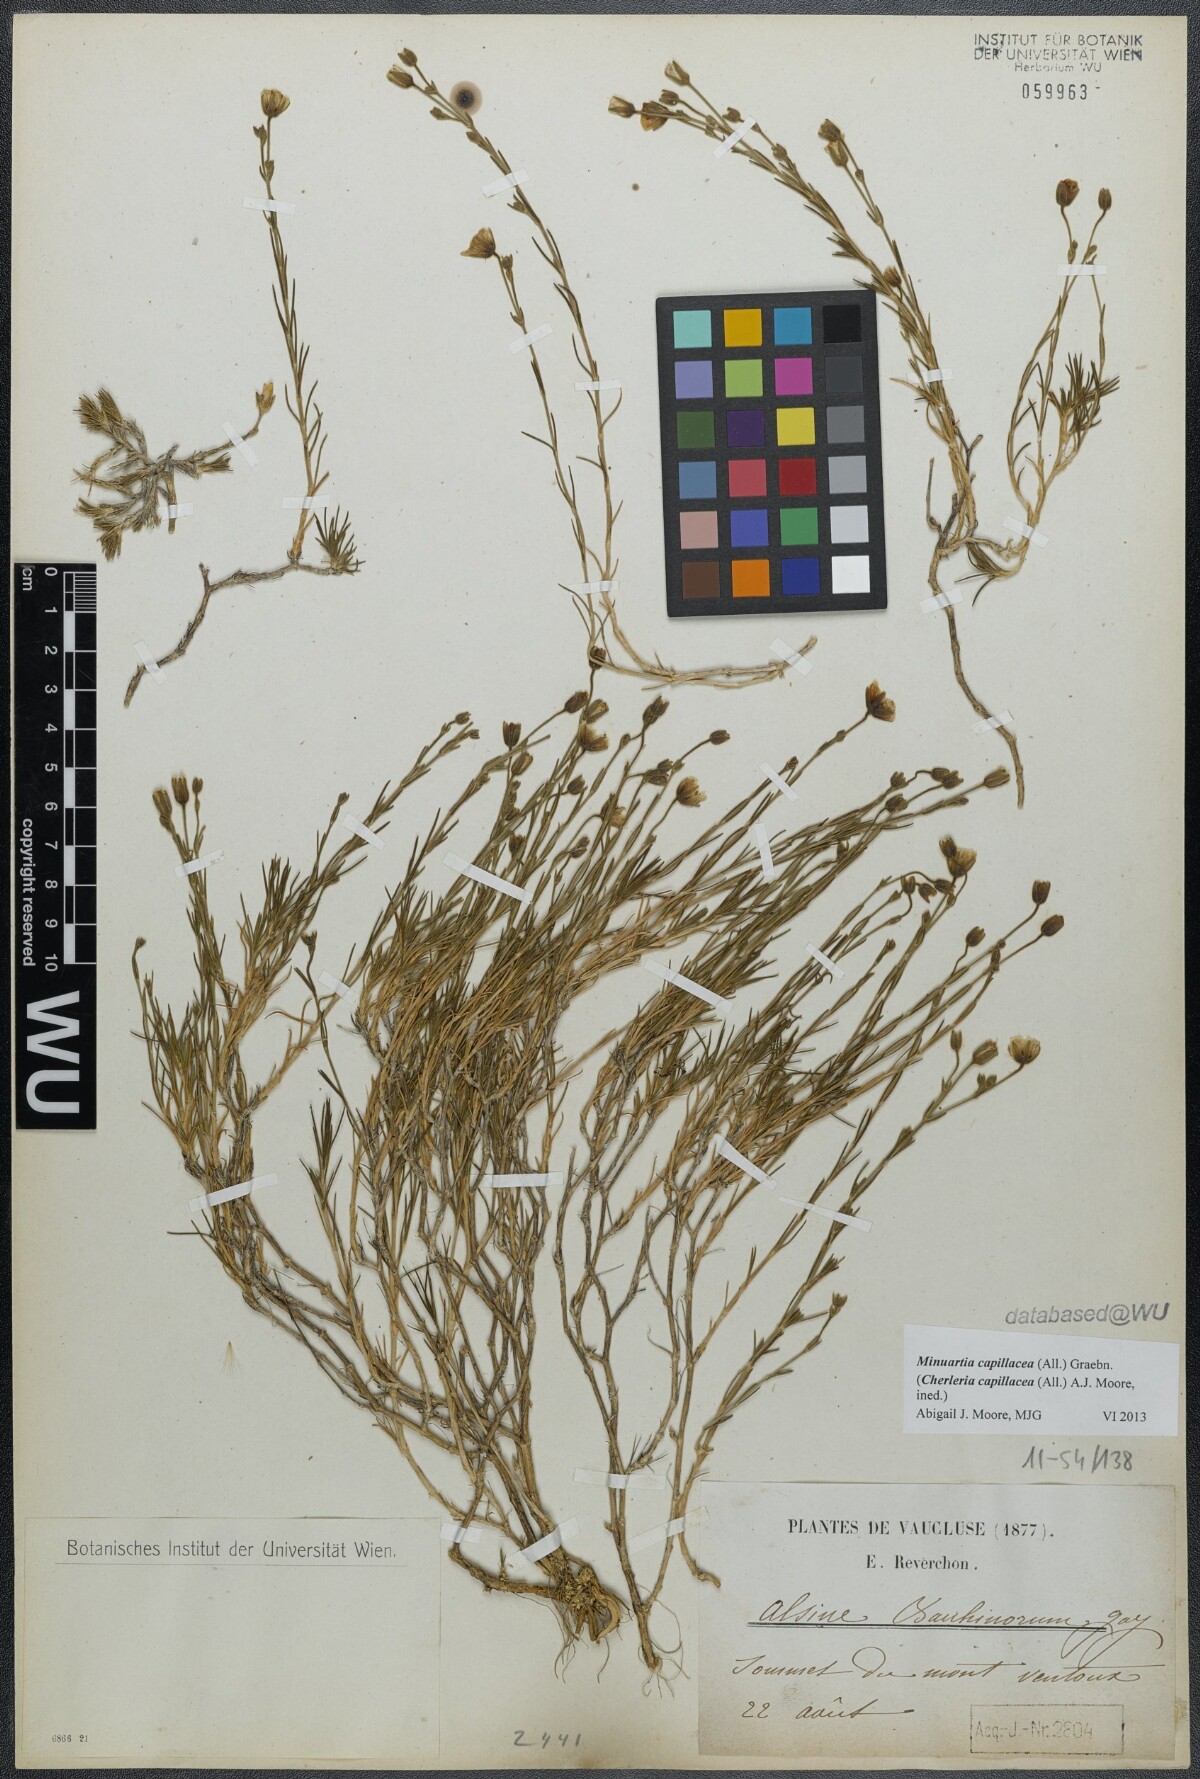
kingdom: Plantae
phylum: Tracheophyta
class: Magnoliopsida
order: Caryophyllales
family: Caryophyllaceae
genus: Cherleria
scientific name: Cherleria capillacea
